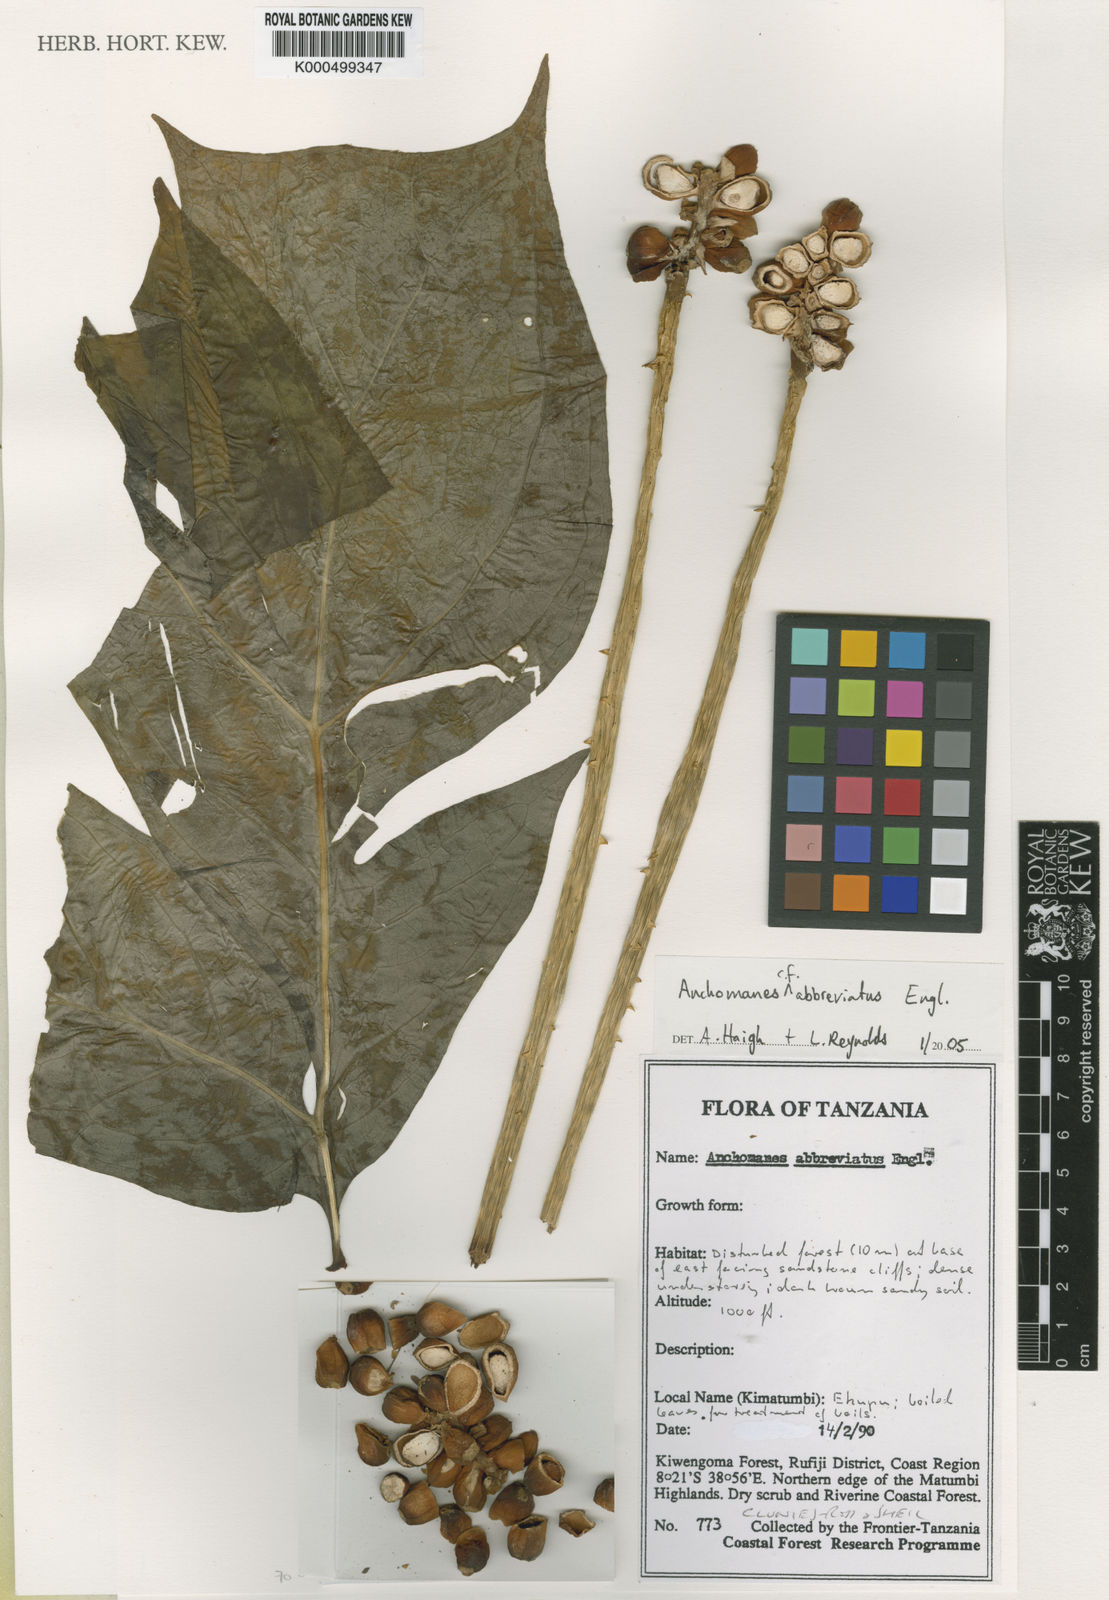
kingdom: Plantae
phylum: Tracheophyta
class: Liliopsida
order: Alismatales
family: Araceae
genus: Anchomanes
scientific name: Anchomanes abbreviatus
